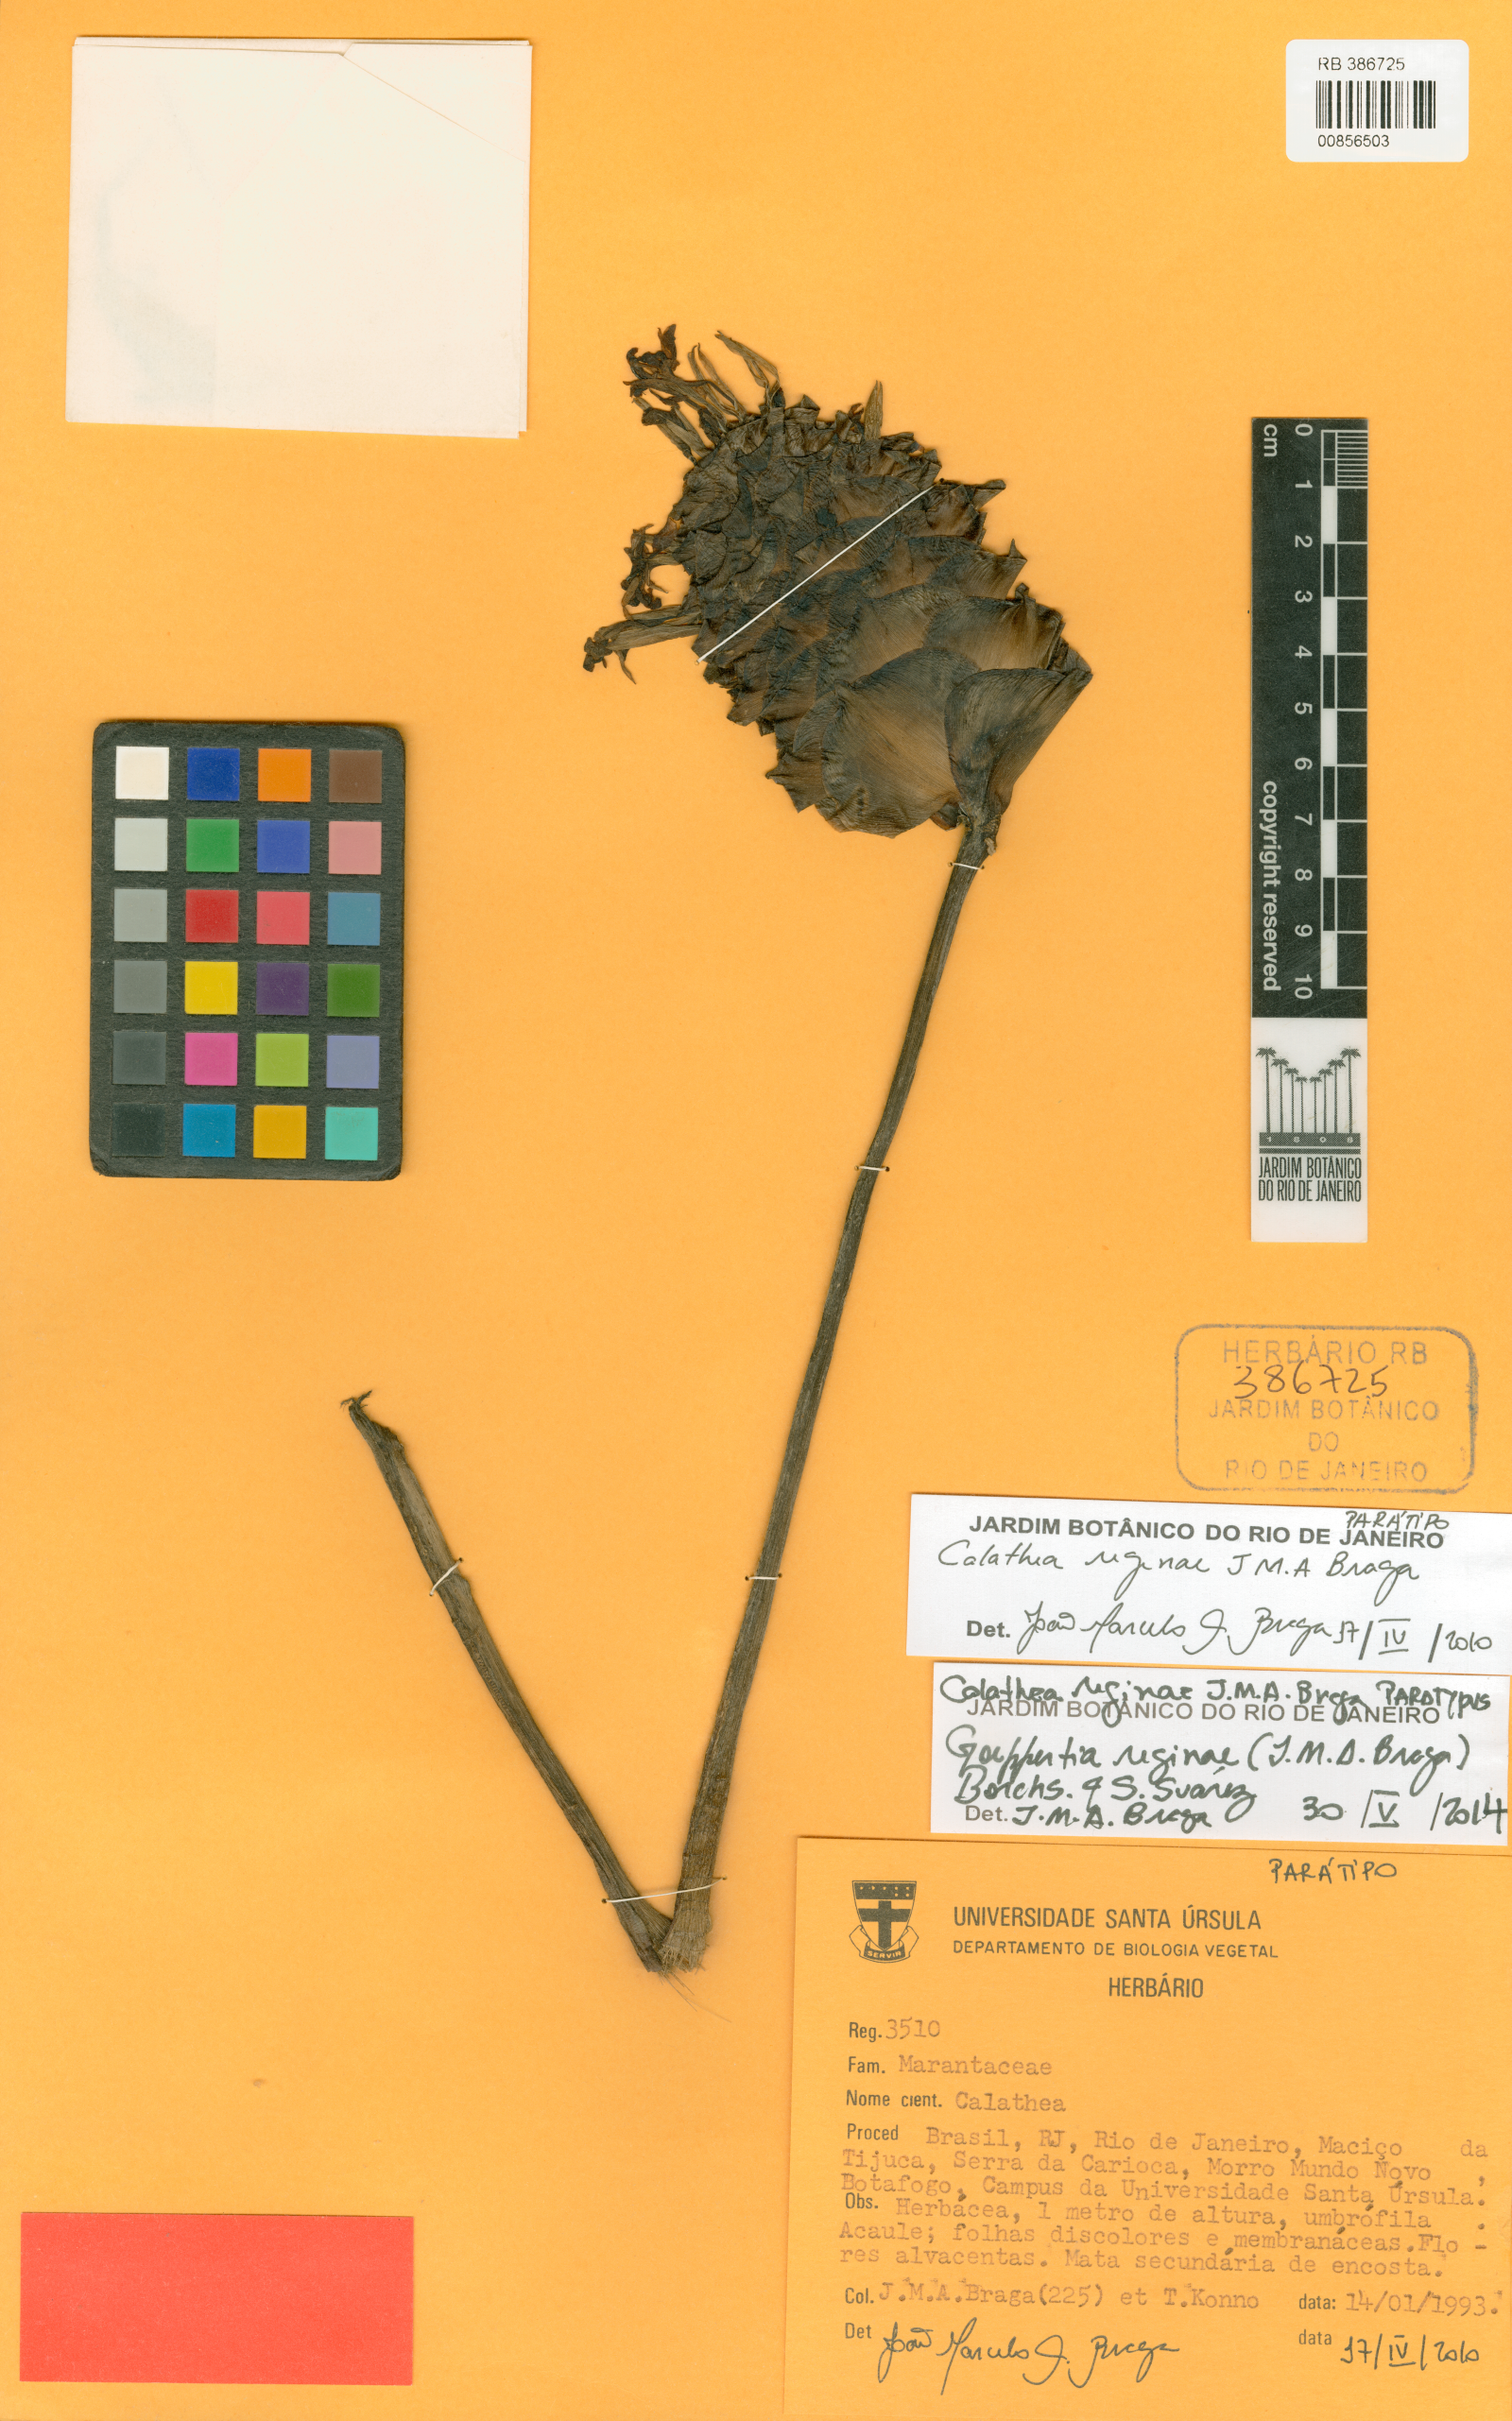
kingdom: Plantae
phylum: Tracheophyta
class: Liliopsida
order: Zingiberales
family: Marantaceae
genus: Goeppertia
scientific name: Goeppertia reginae
